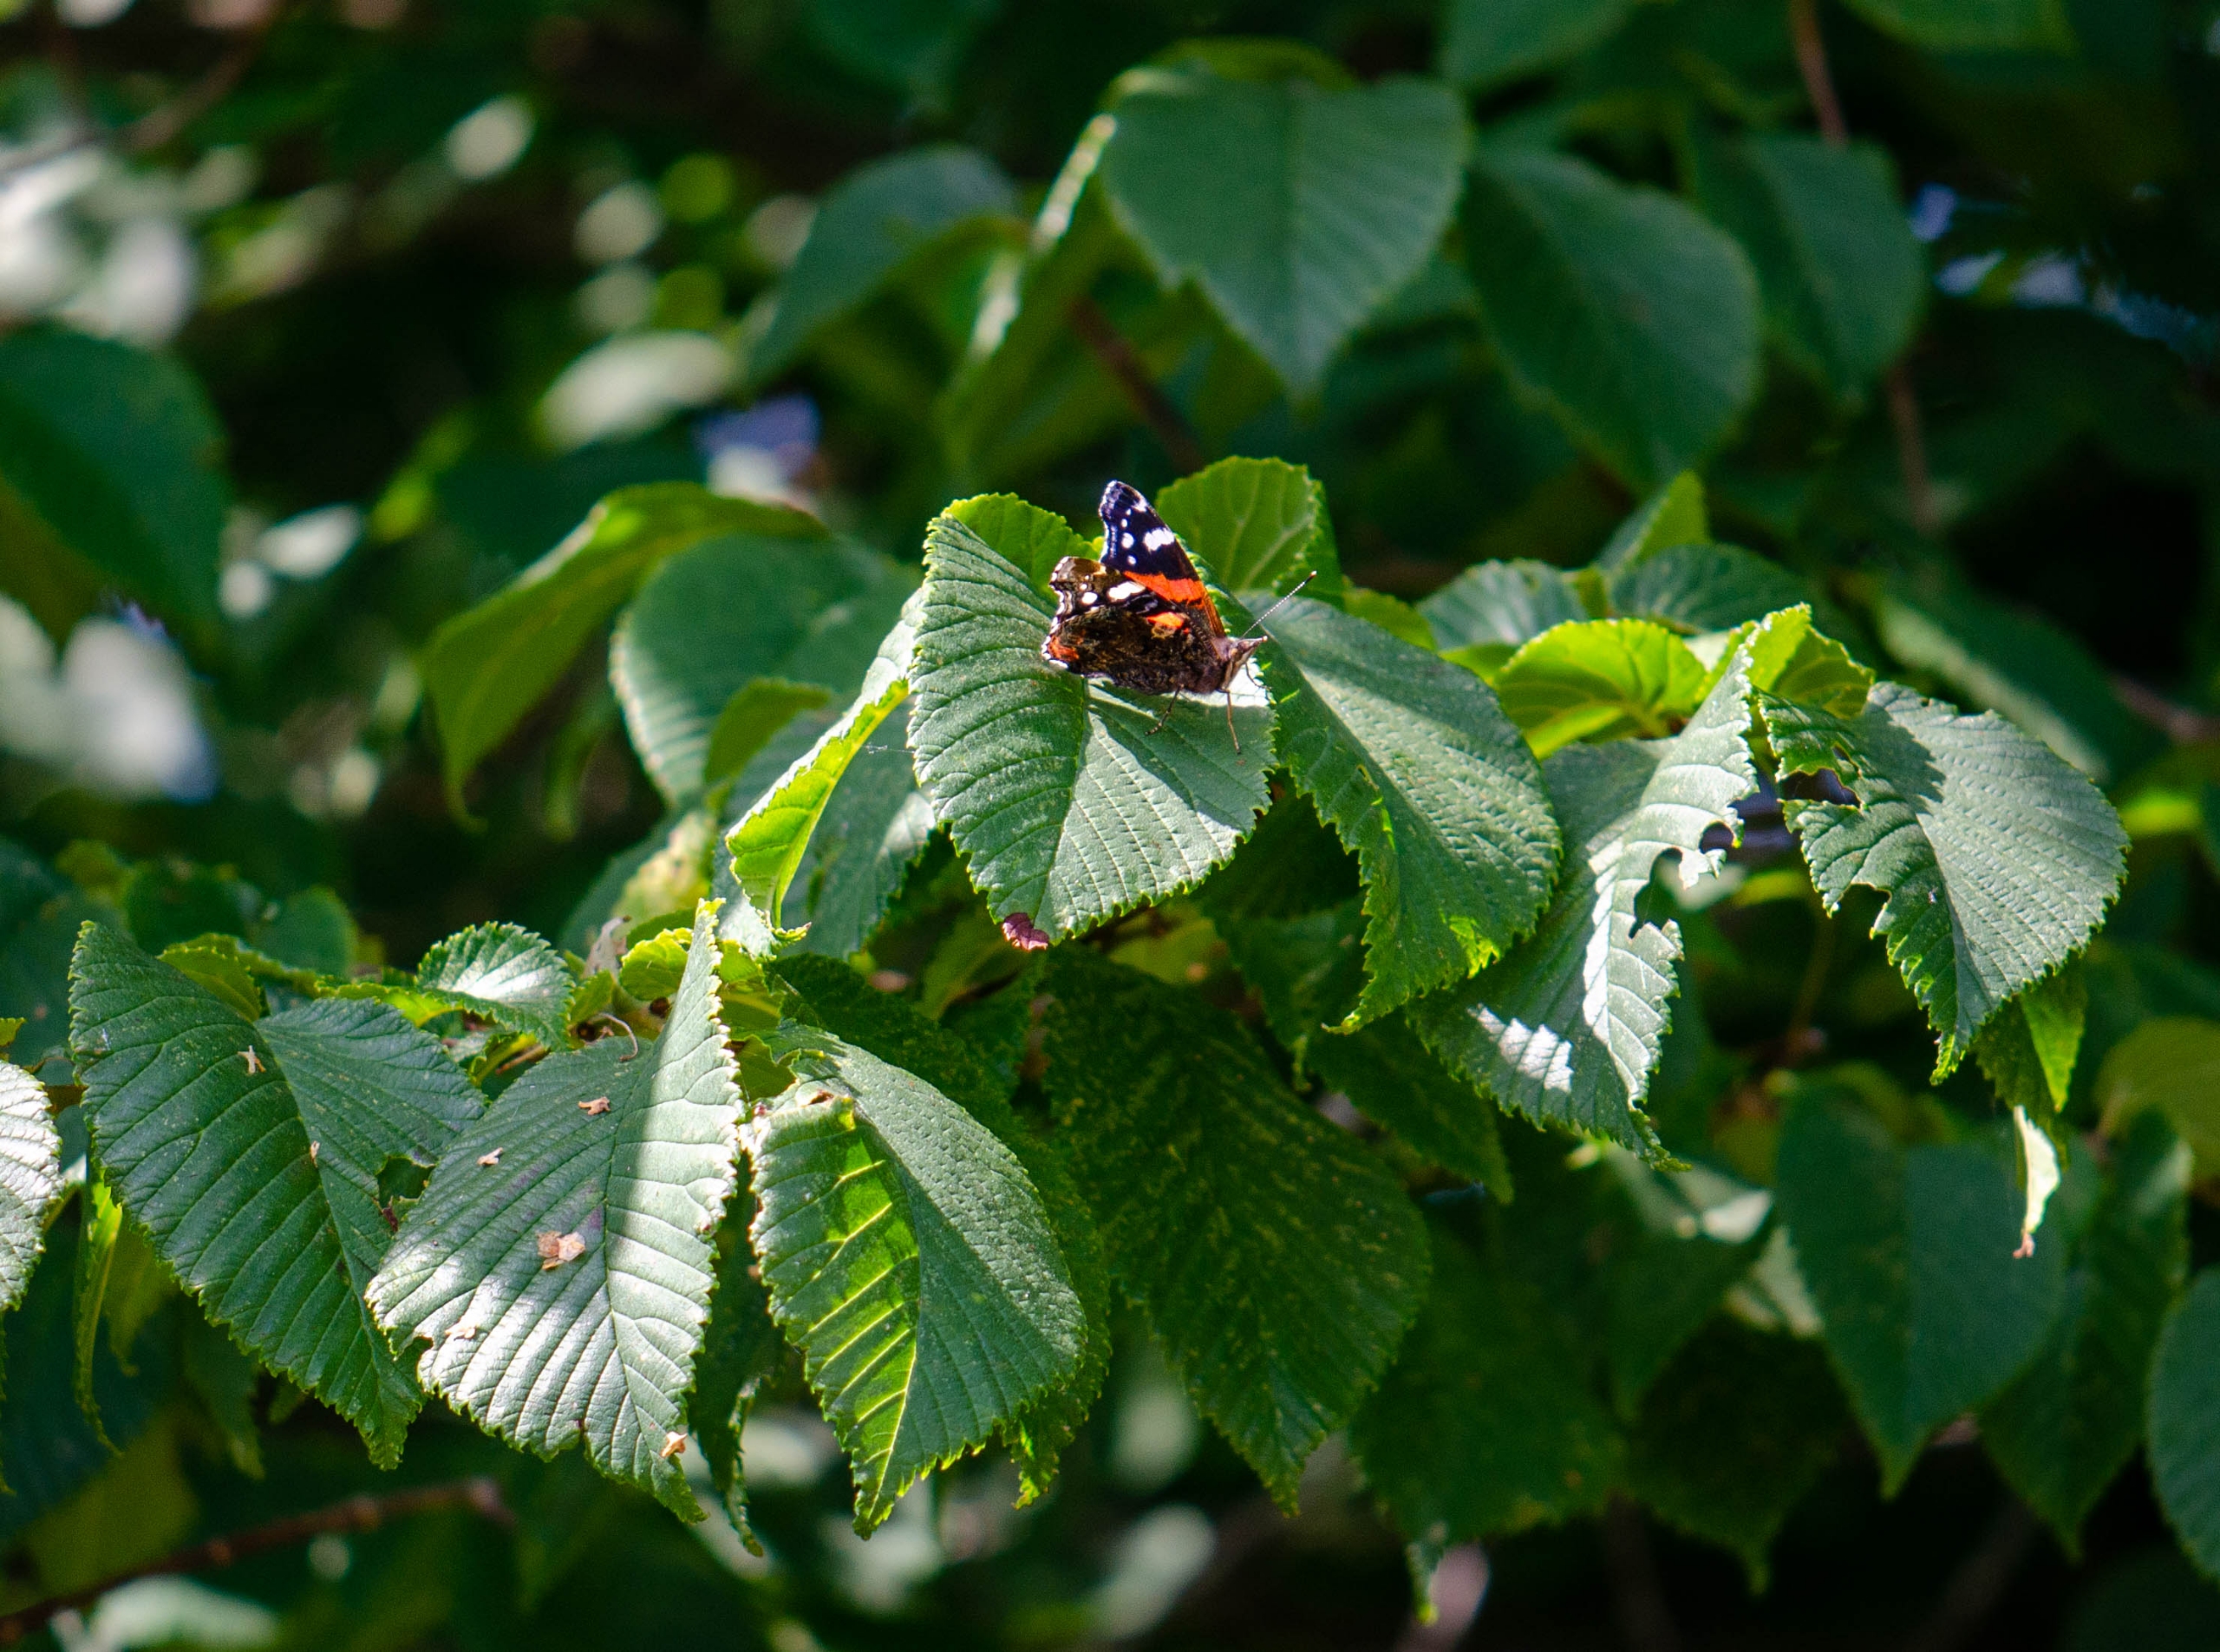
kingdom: Animalia
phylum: Arthropoda
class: Insecta
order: Lepidoptera
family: Nymphalidae
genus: Vanessa
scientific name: Vanessa atalanta
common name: Admiral
